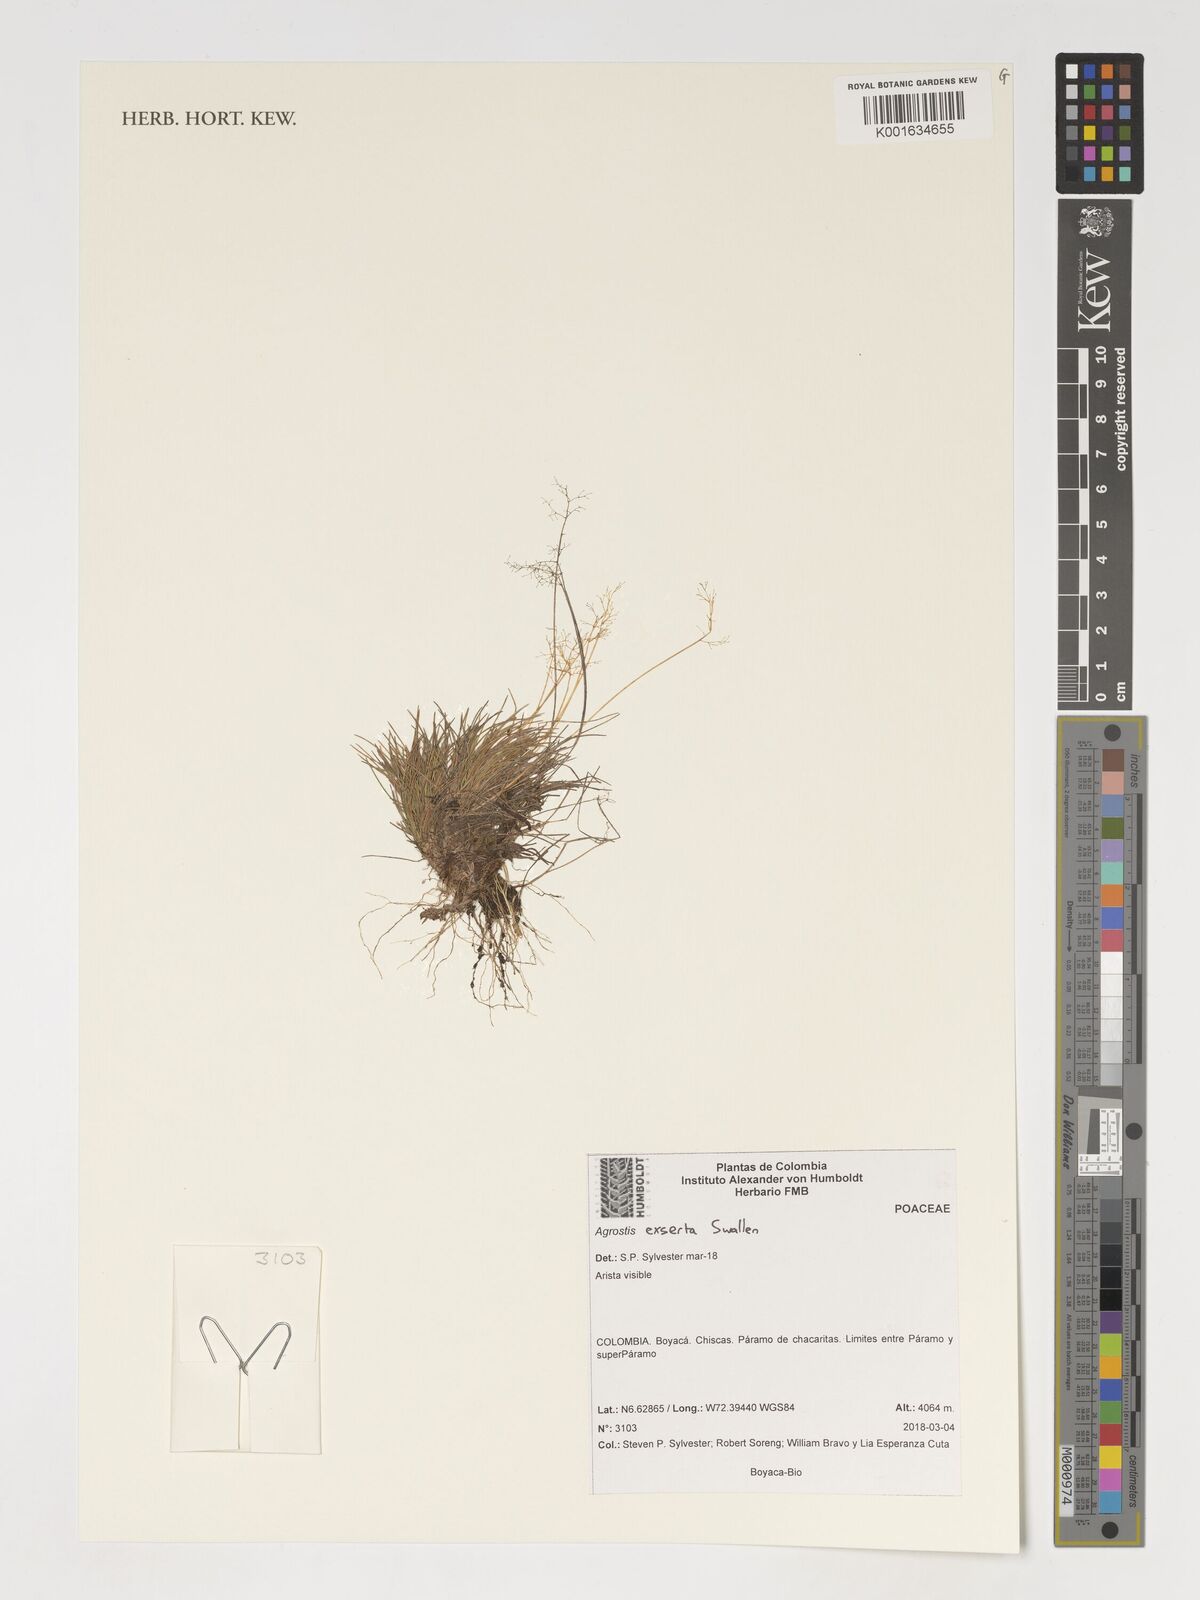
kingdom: Plantae
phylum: Tracheophyta
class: Liliopsida
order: Poales
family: Poaceae
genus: Podagrostis
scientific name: Podagrostis exserta
